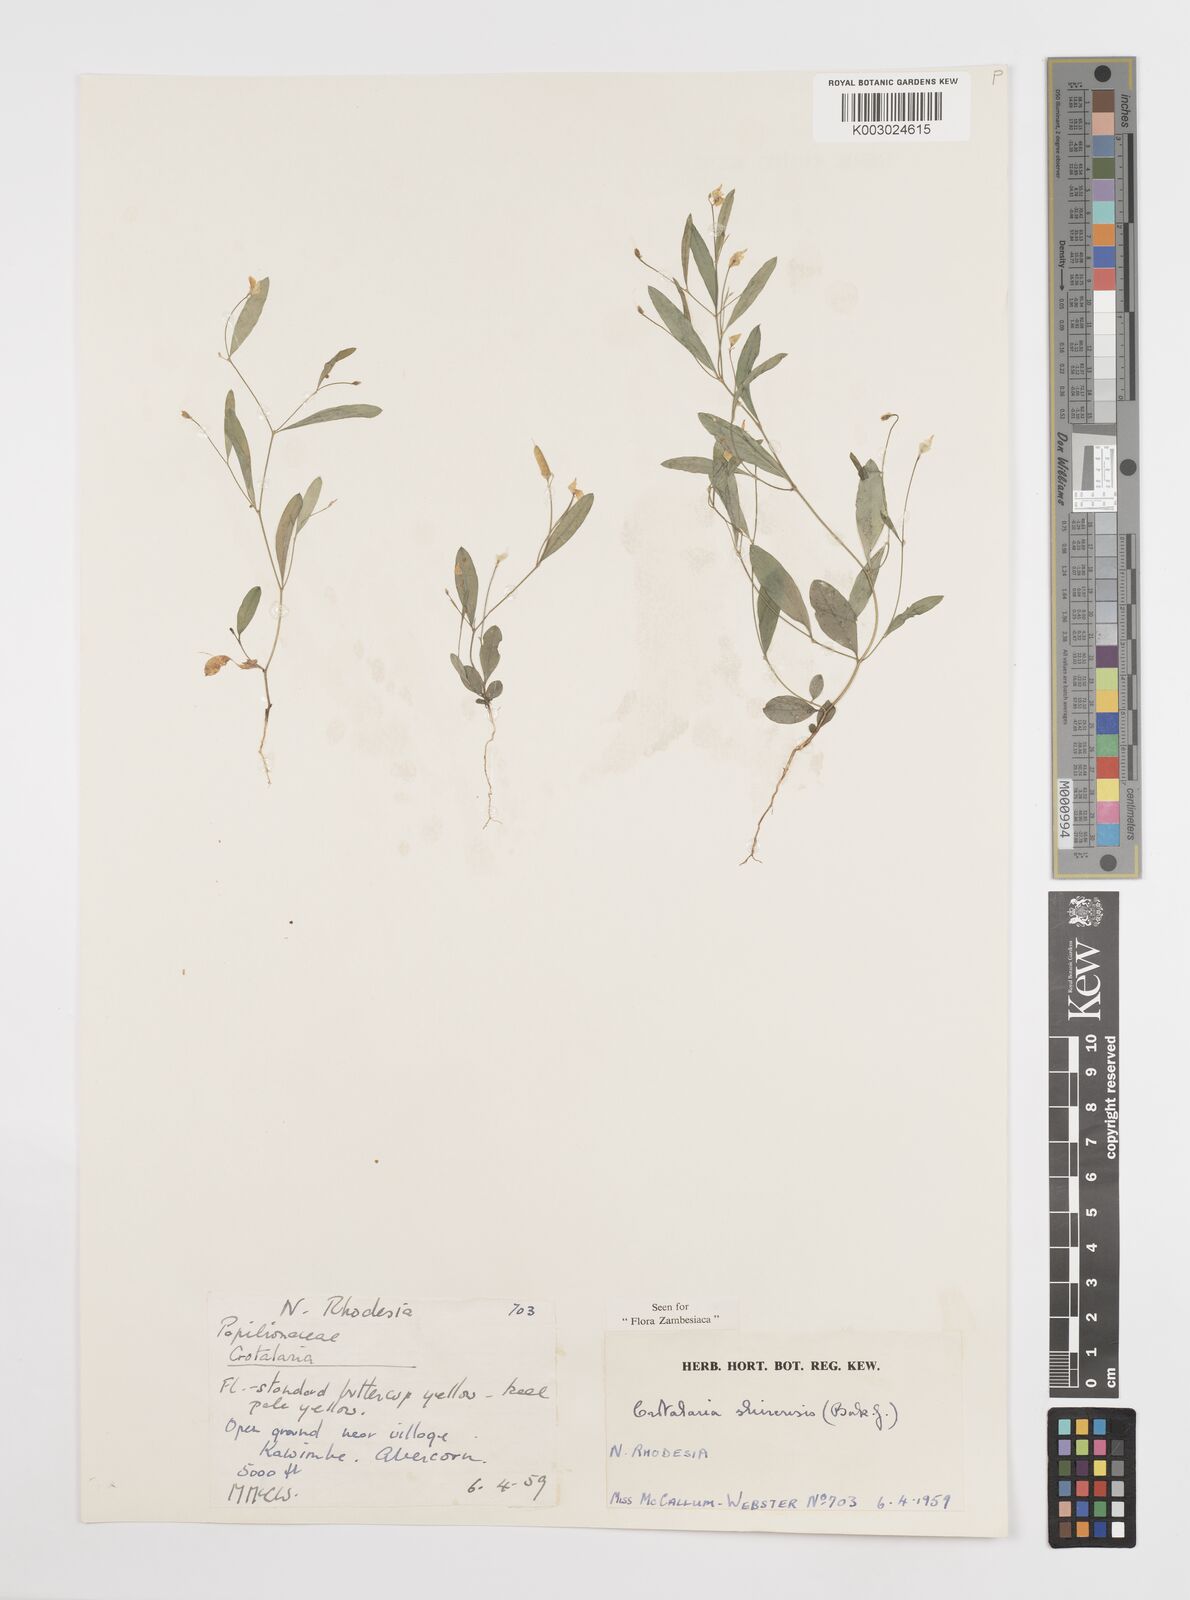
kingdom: Plantae
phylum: Tracheophyta
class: Magnoliopsida
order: Fabales
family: Fabaceae
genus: Crotalaria
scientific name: Crotalaria shirensis
